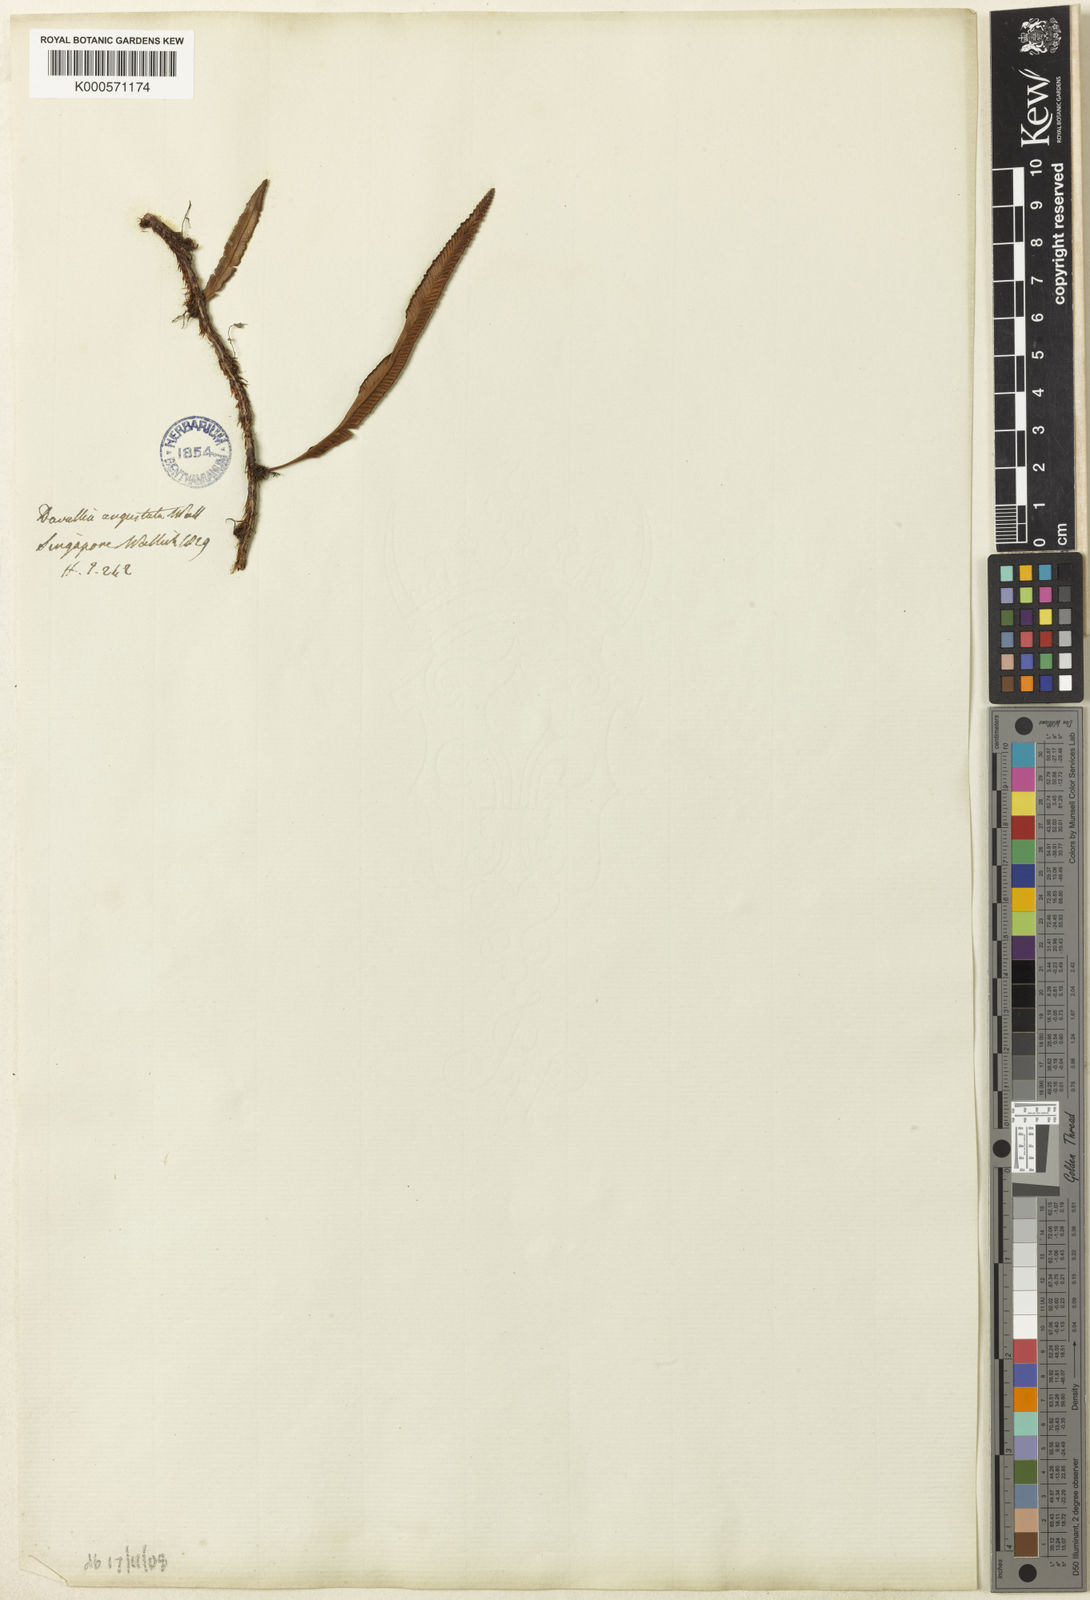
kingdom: Plantae
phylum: Tracheophyta
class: Polypodiopsida
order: Polypodiales
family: Davalliaceae
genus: Davallia
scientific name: Davallia angustata
